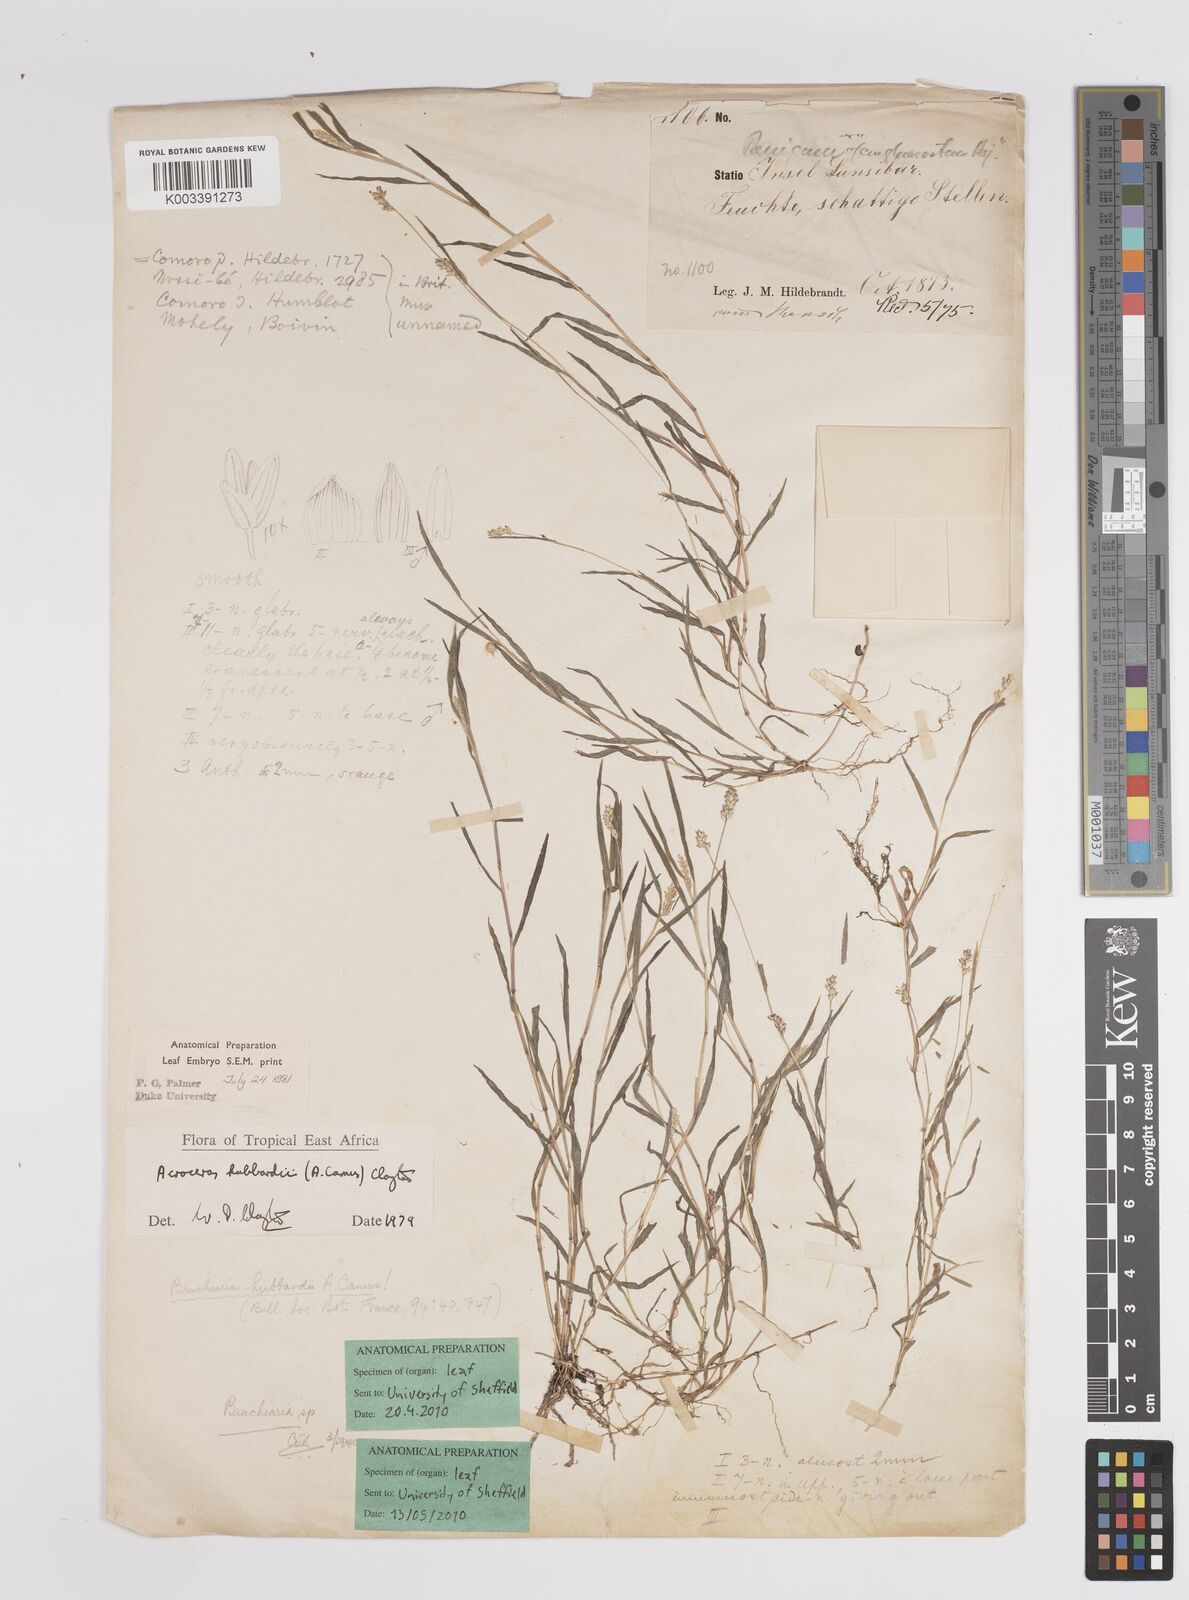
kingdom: Plantae
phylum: Tracheophyta
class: Liliopsida
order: Poales
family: Poaceae
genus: Acroceras
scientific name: Acroceras hubbardii
